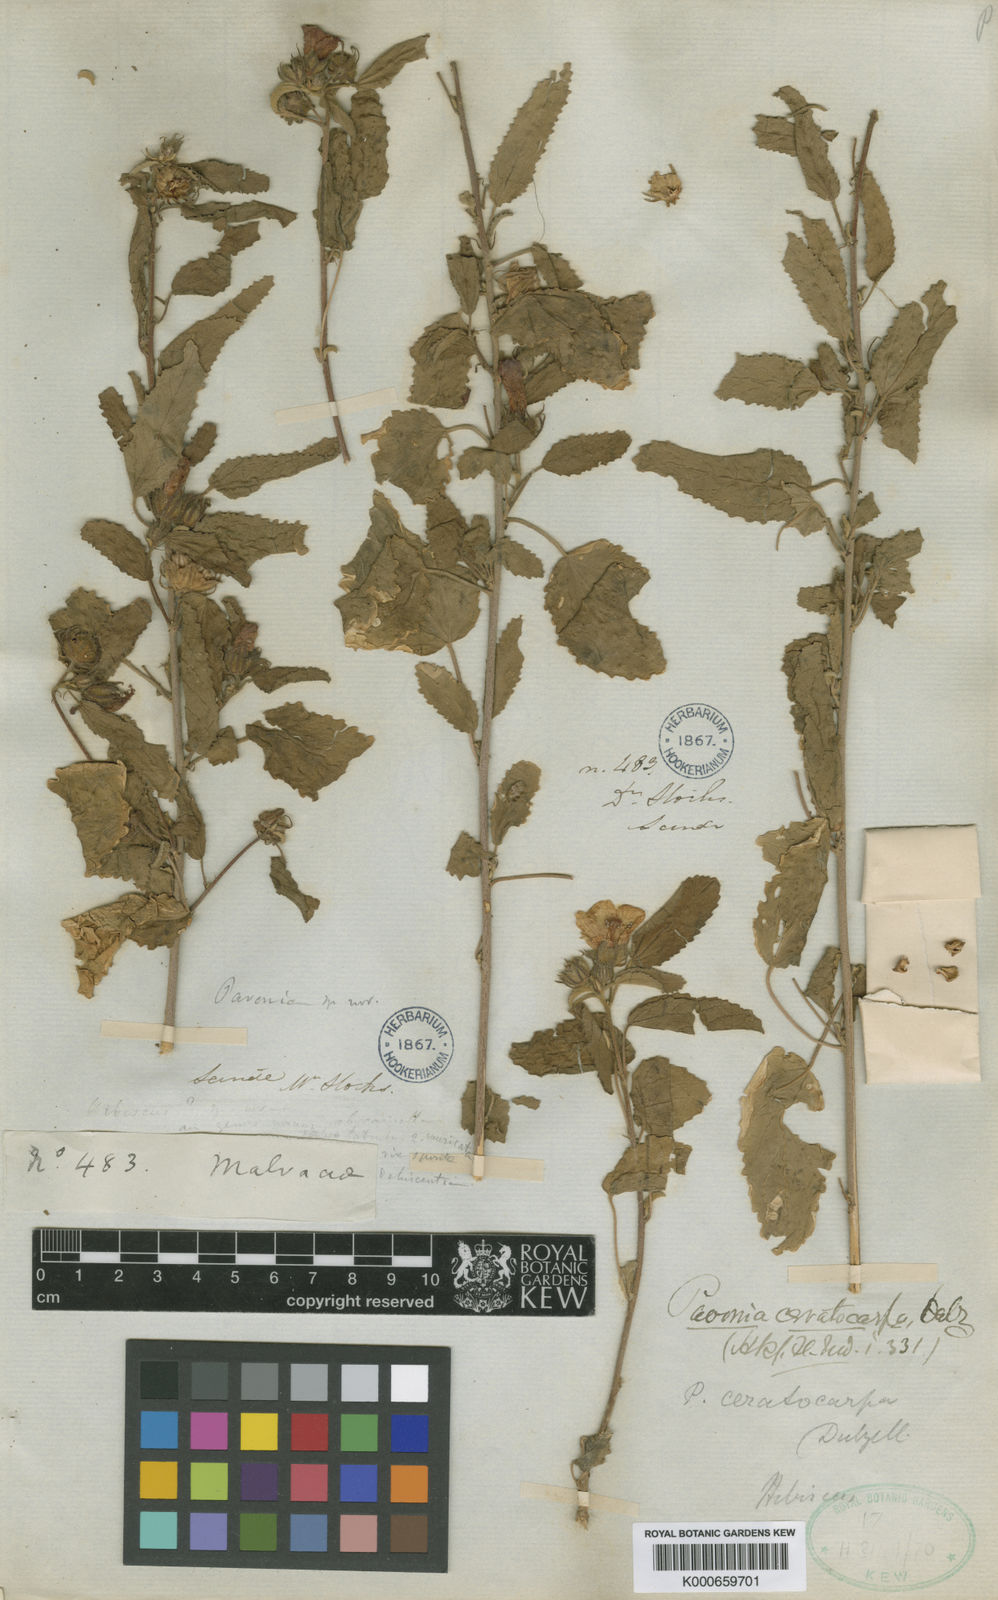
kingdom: Plantae
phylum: Tracheophyta
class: Magnoliopsida
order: Malvales
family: Malvaceae
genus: Pavonia
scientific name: Pavonia propinqua
